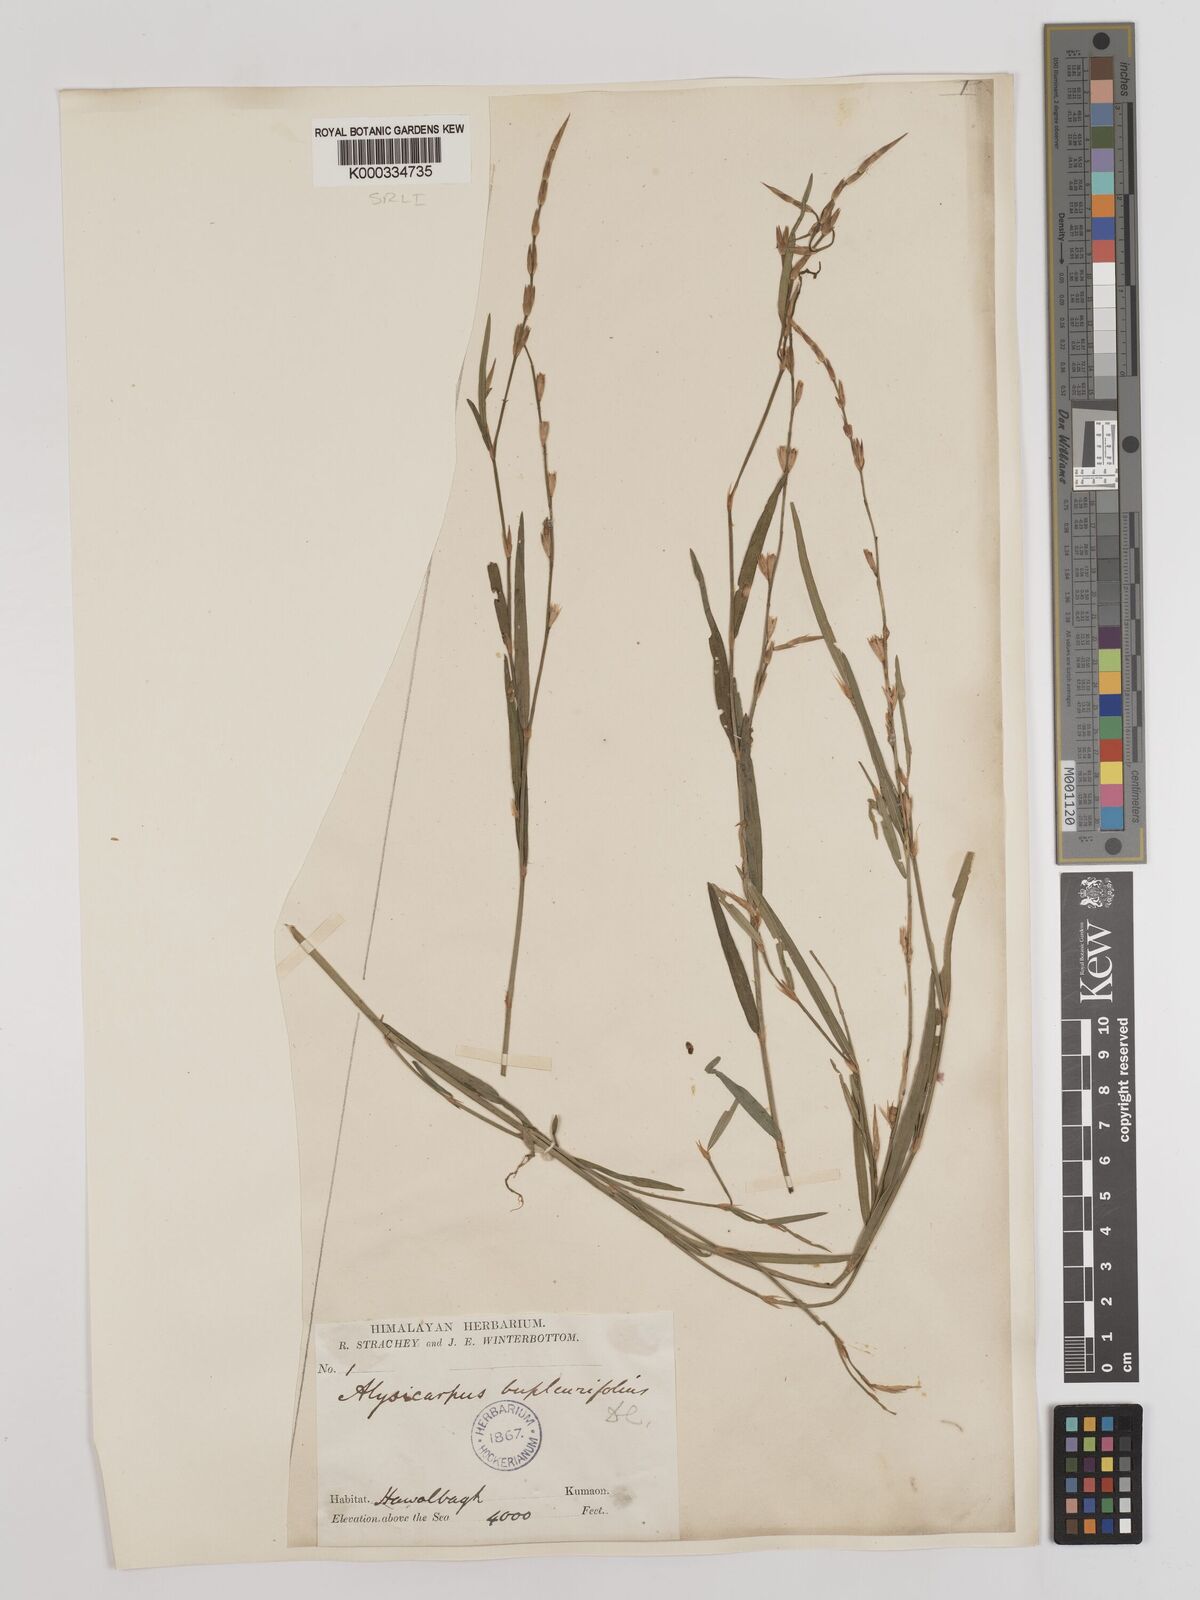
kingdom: Plantae
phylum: Tracheophyta
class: Magnoliopsida
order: Fabales
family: Fabaceae
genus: Alysicarpus
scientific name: Alysicarpus bupleurifolius
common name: Sweet alys
